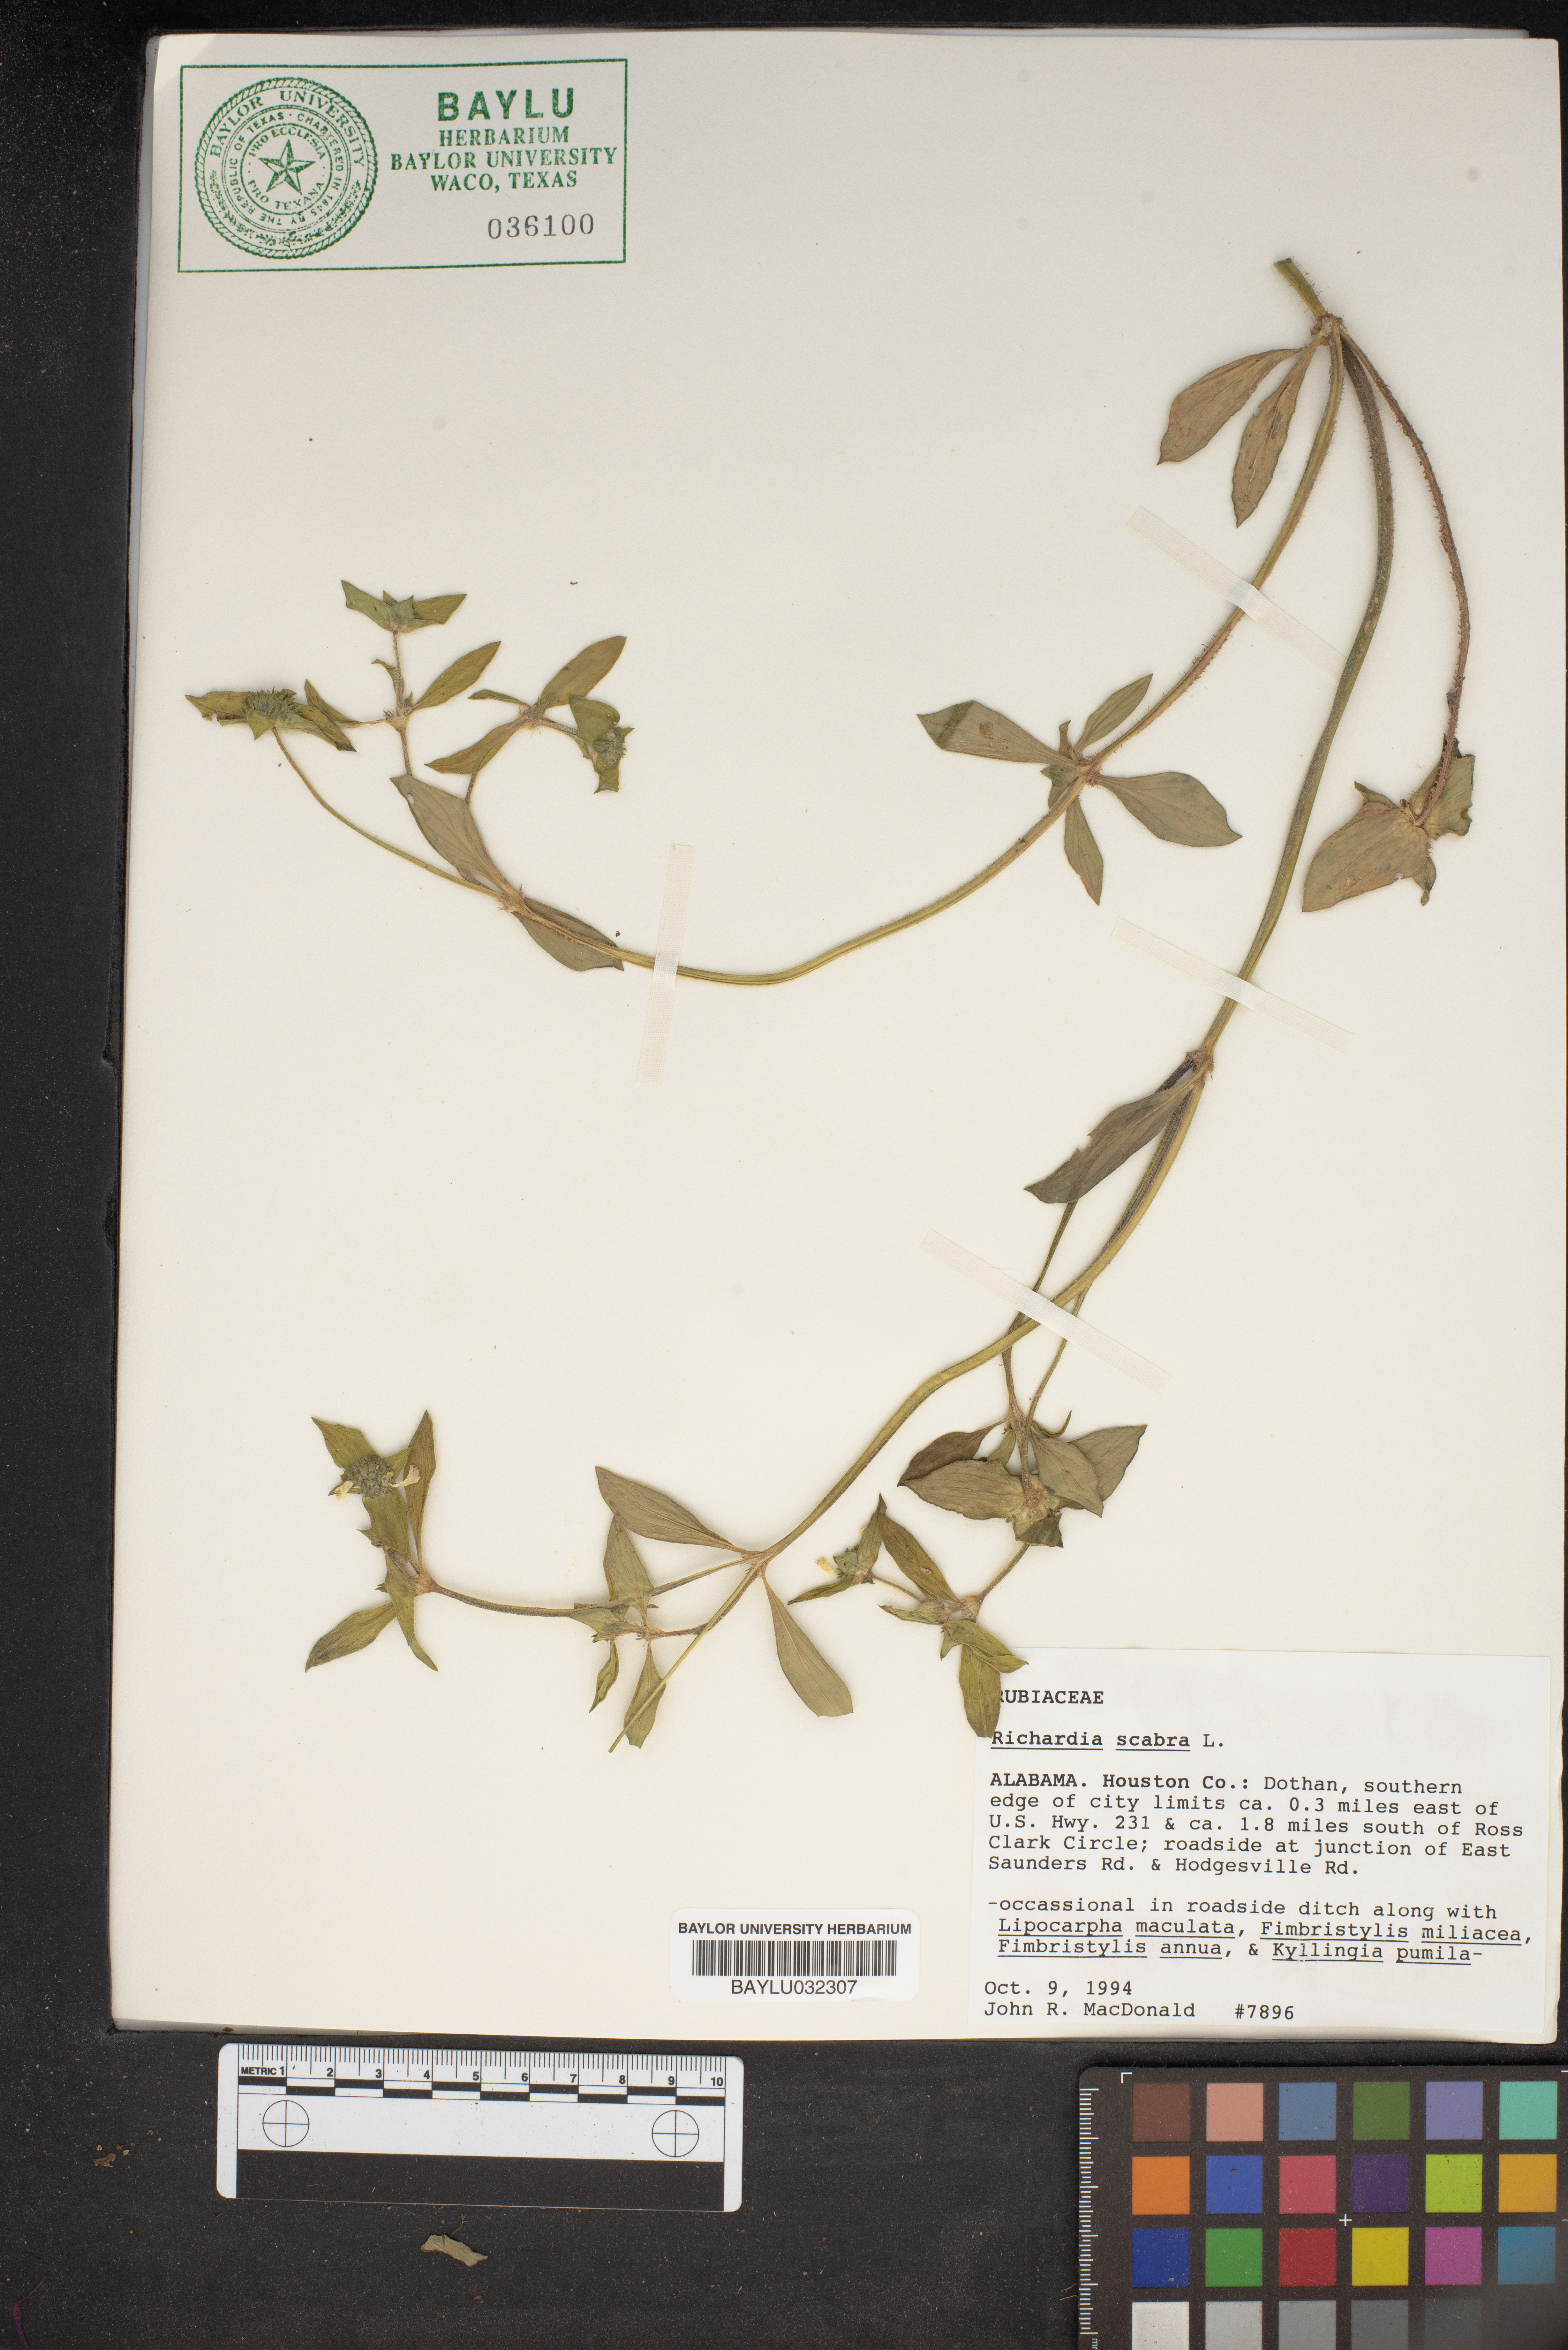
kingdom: Plantae
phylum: Tracheophyta
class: Magnoliopsida
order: Gentianales
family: Rubiaceae
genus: Richardia
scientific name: Richardia scabra
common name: Rough mexican clover
